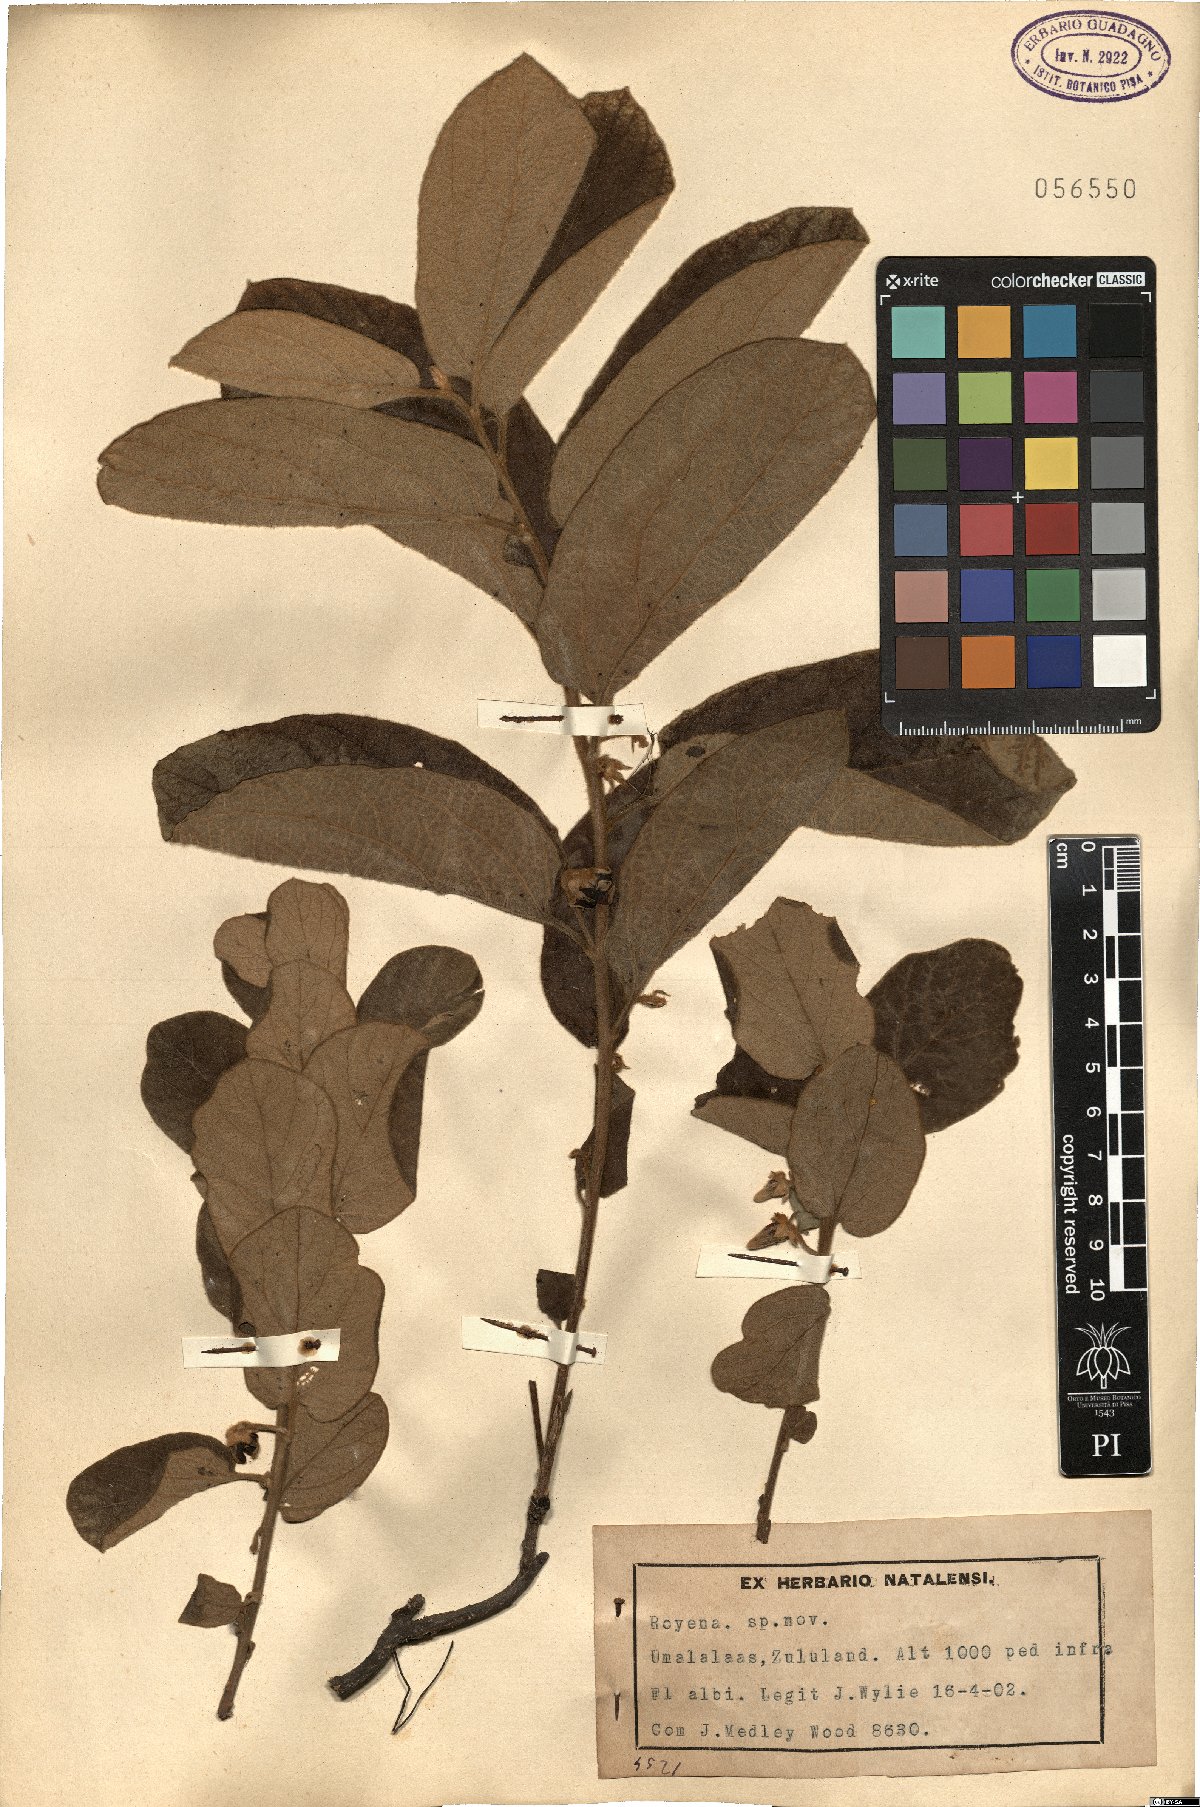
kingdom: Plantae
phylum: Tracheophyta
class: Magnoliopsida
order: Ericales
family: Ebenaceae
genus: Diospyros
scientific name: Diospyros
